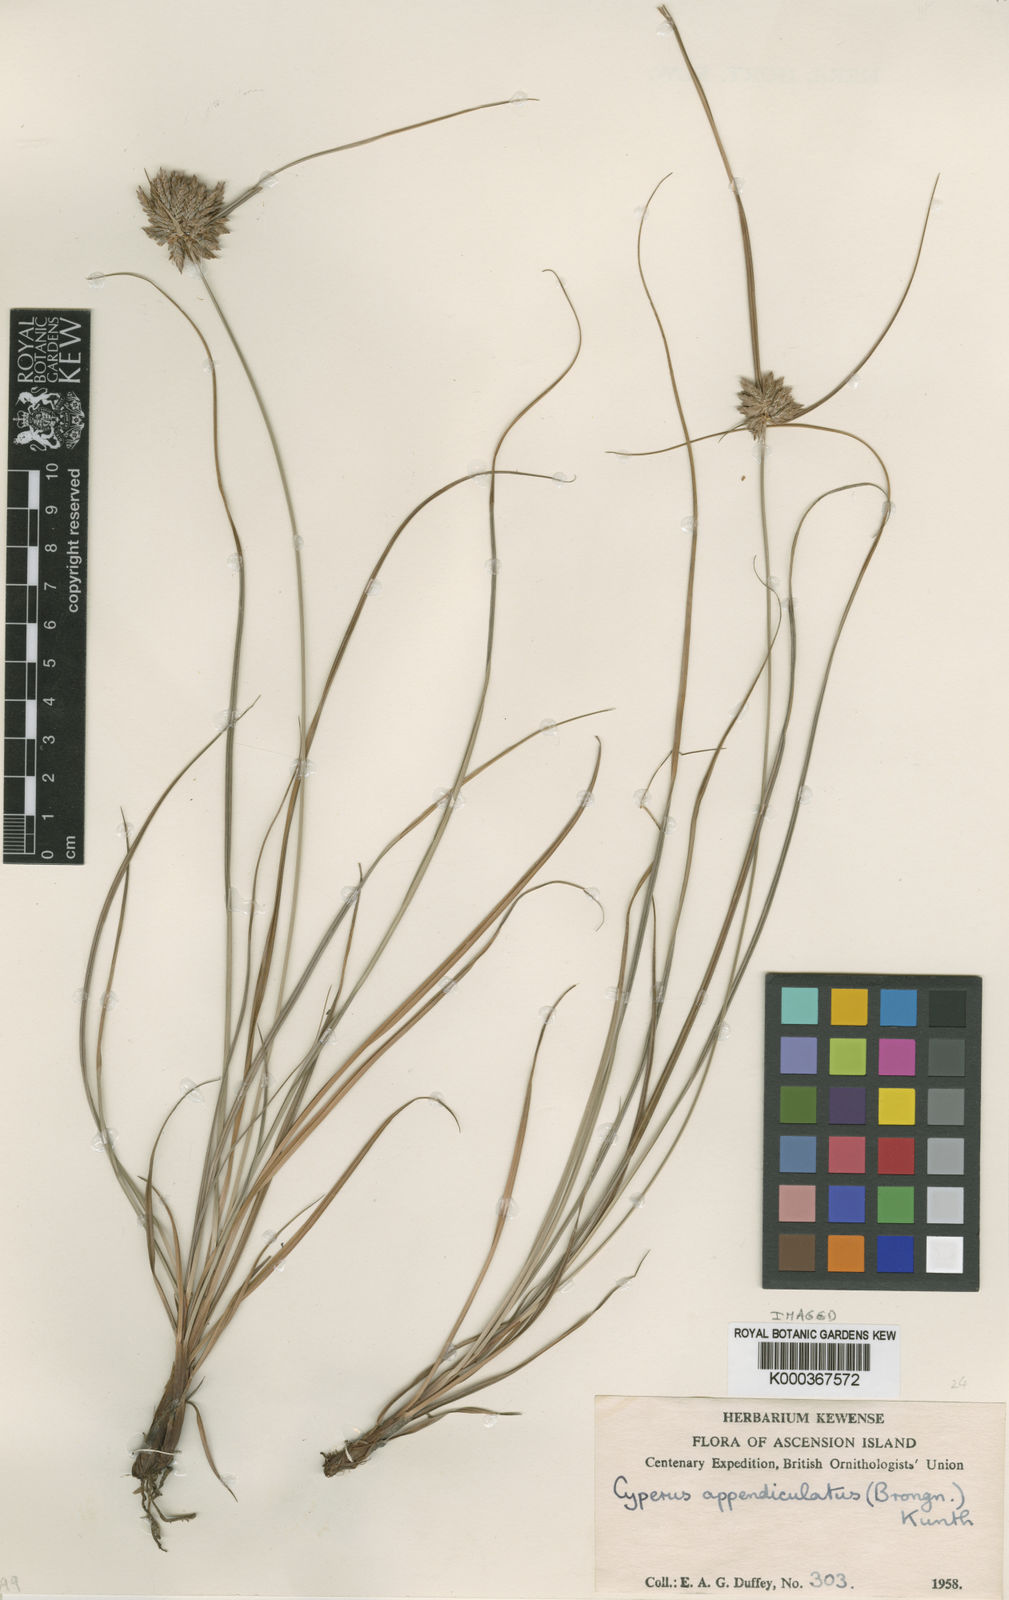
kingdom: Plantae
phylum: Tracheophyta
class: Liliopsida
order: Poales
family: Cyperaceae
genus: Cyperus
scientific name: Cyperus appendiculatus
